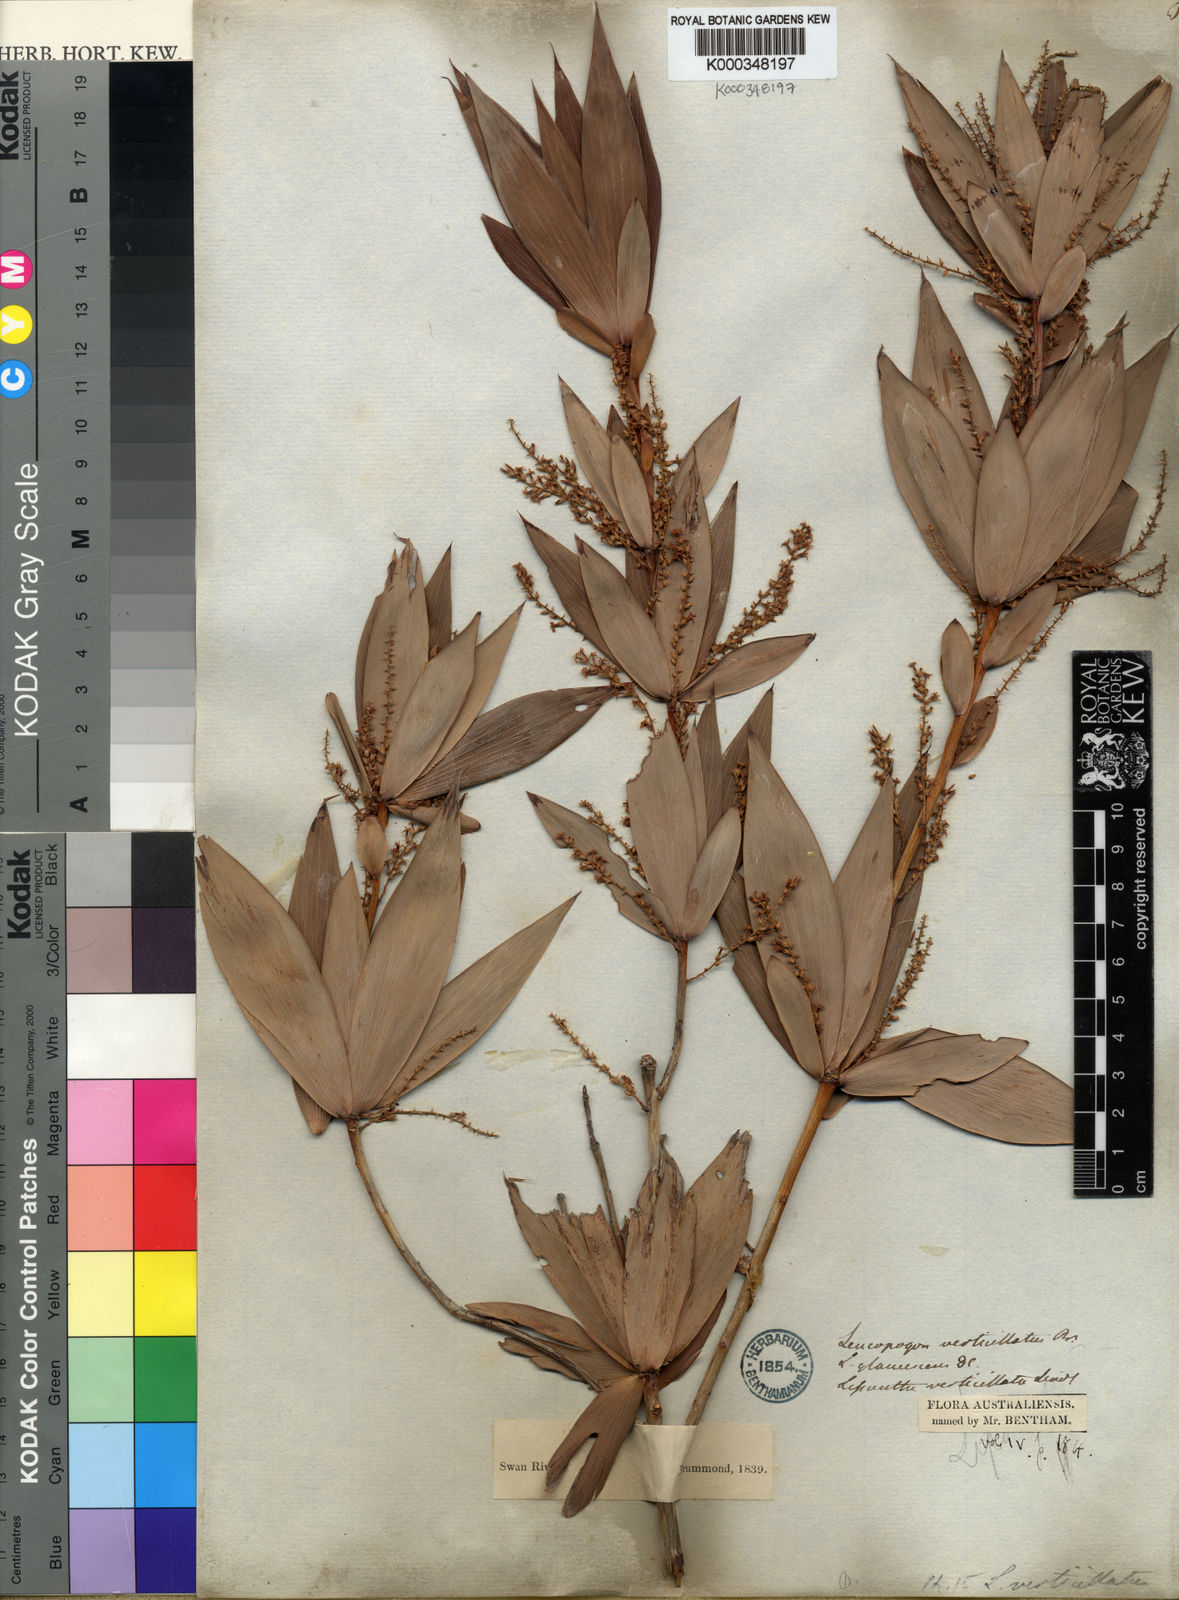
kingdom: Plantae
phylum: Tracheophyta
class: Magnoliopsida
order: Ericales
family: Ericaceae
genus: Leucopogon
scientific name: Leucopogon verticillatus
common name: Tasselshrub
